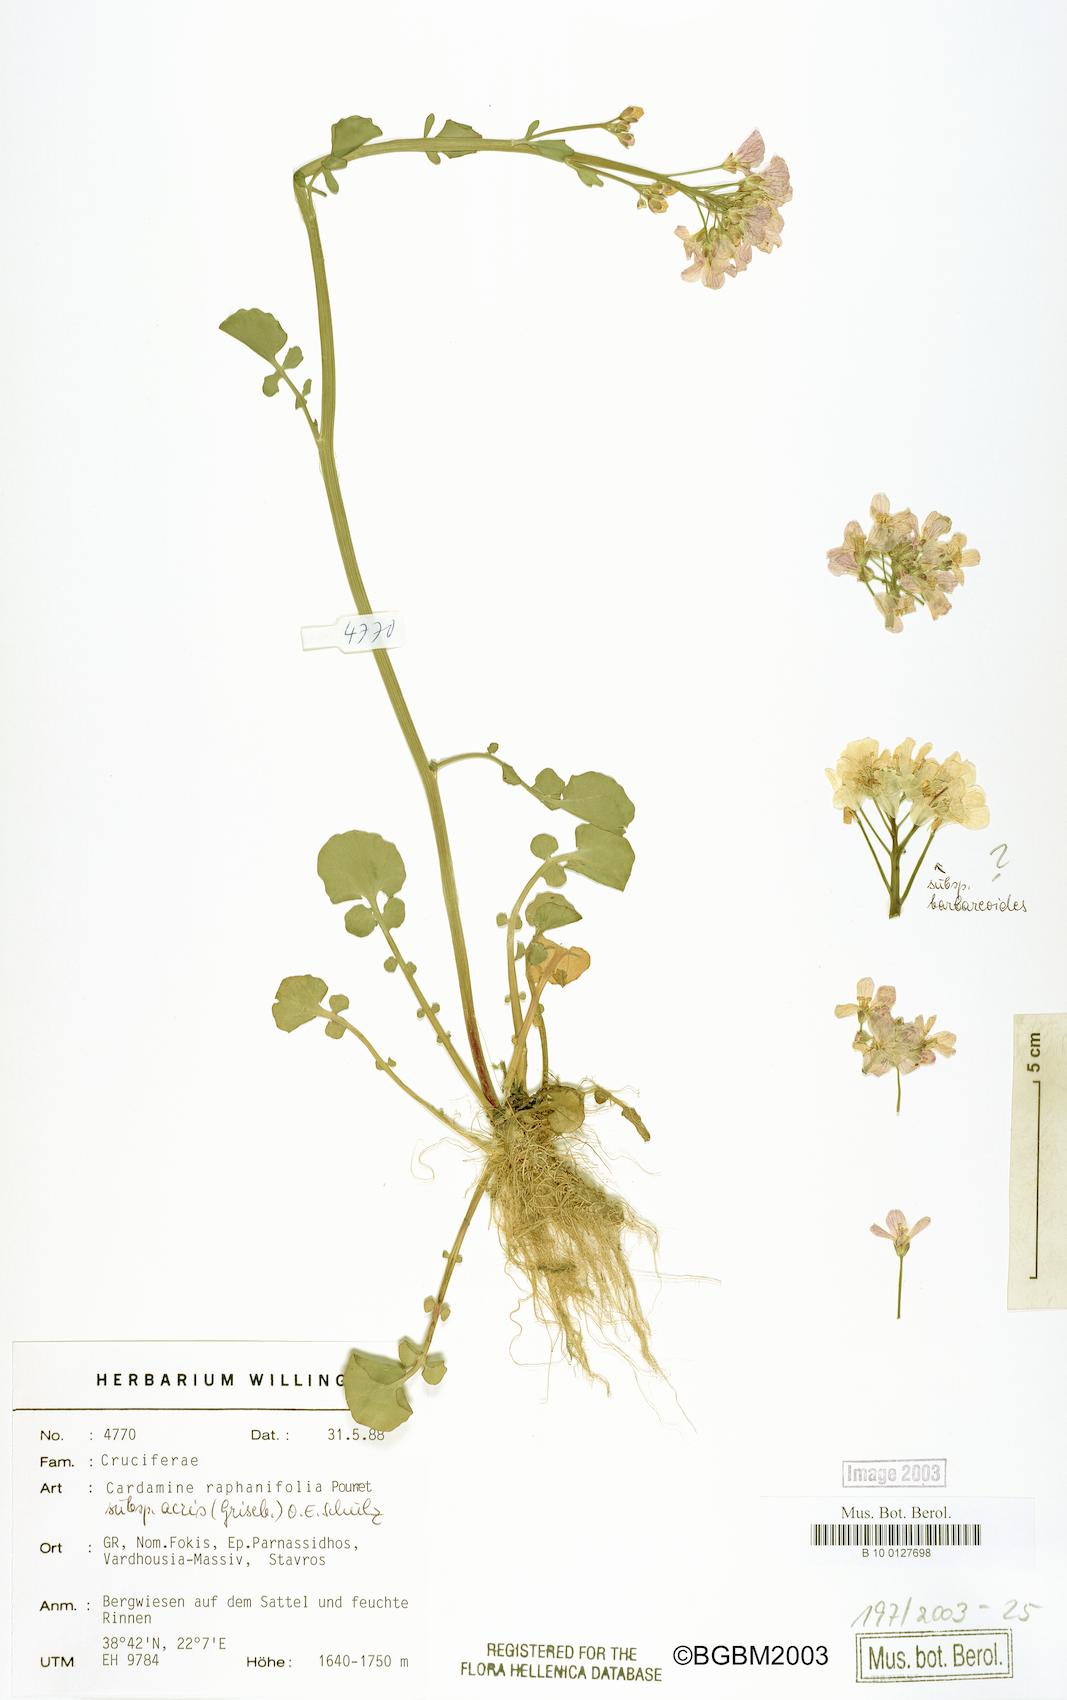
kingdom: Plantae
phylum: Tracheophyta
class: Magnoliopsida
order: Brassicales
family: Brassicaceae
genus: Cardamine
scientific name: Cardamine raphanifolia
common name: Greater cuckooflower
